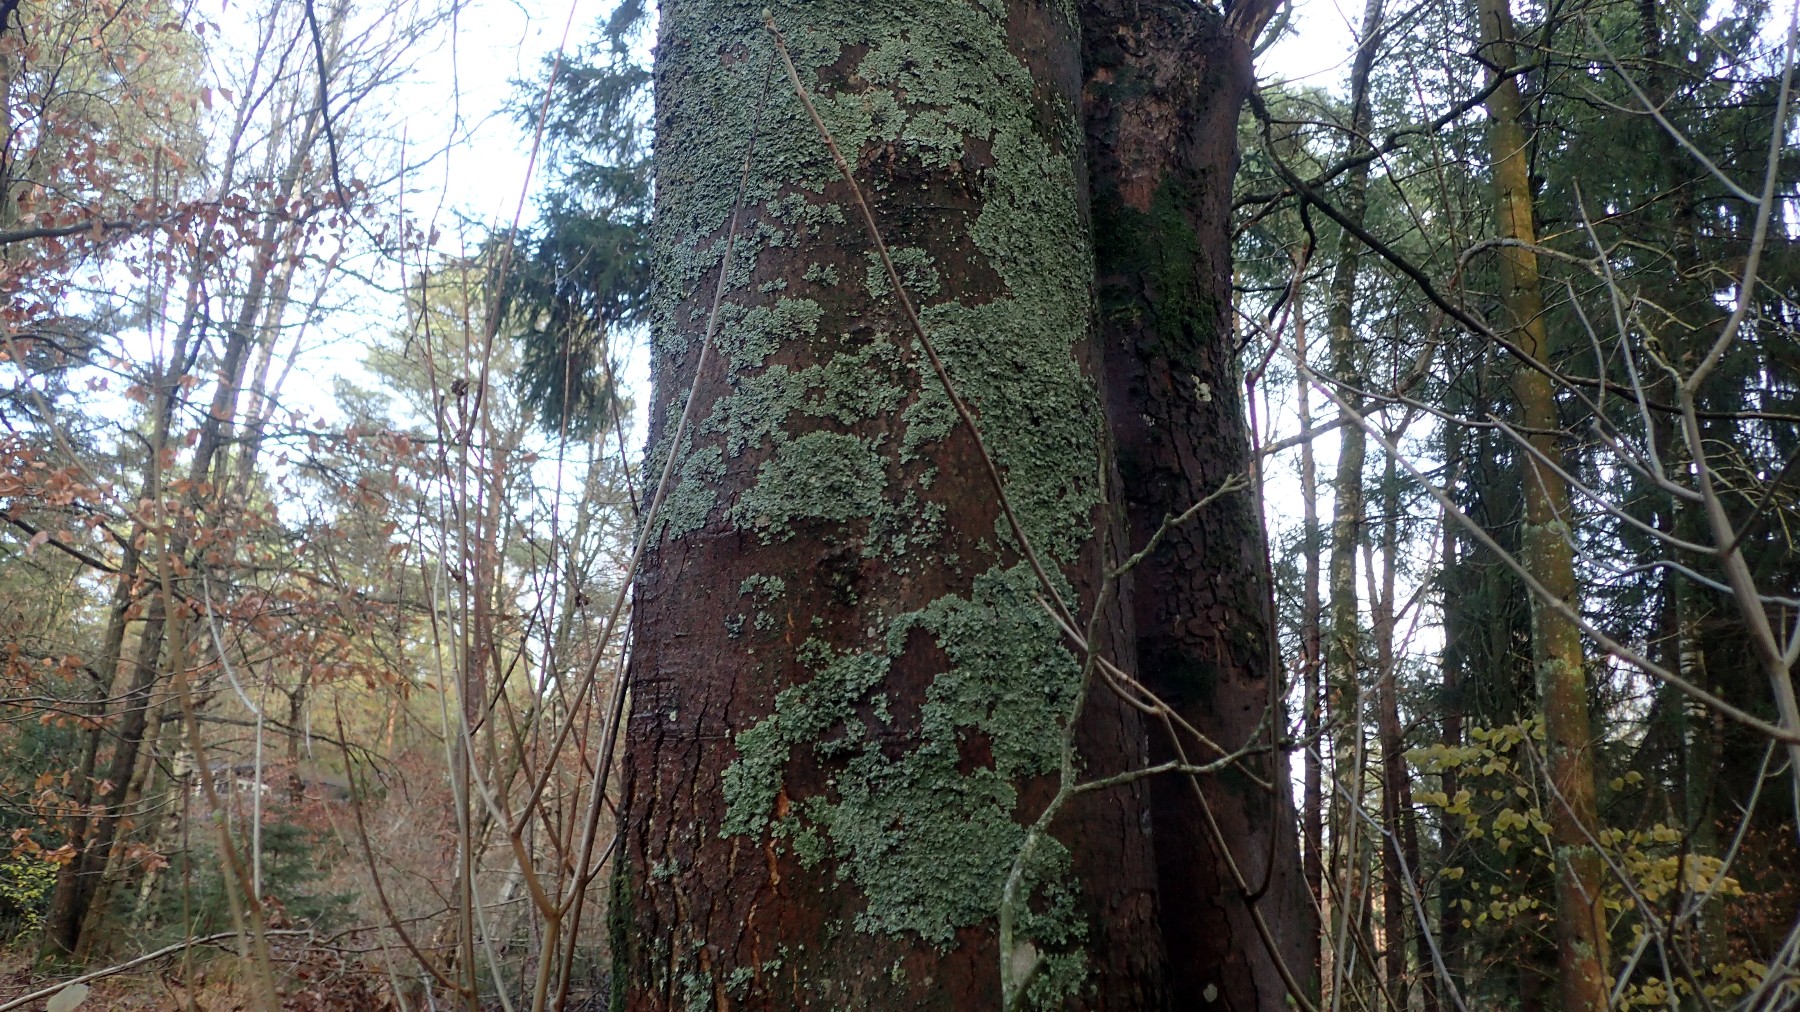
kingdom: Fungi
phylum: Ascomycota
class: Lecanoromycetes
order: Lecanorales
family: Parmeliaceae
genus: Parmelia
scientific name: Parmelia ernstiae
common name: rimstift-skållav
